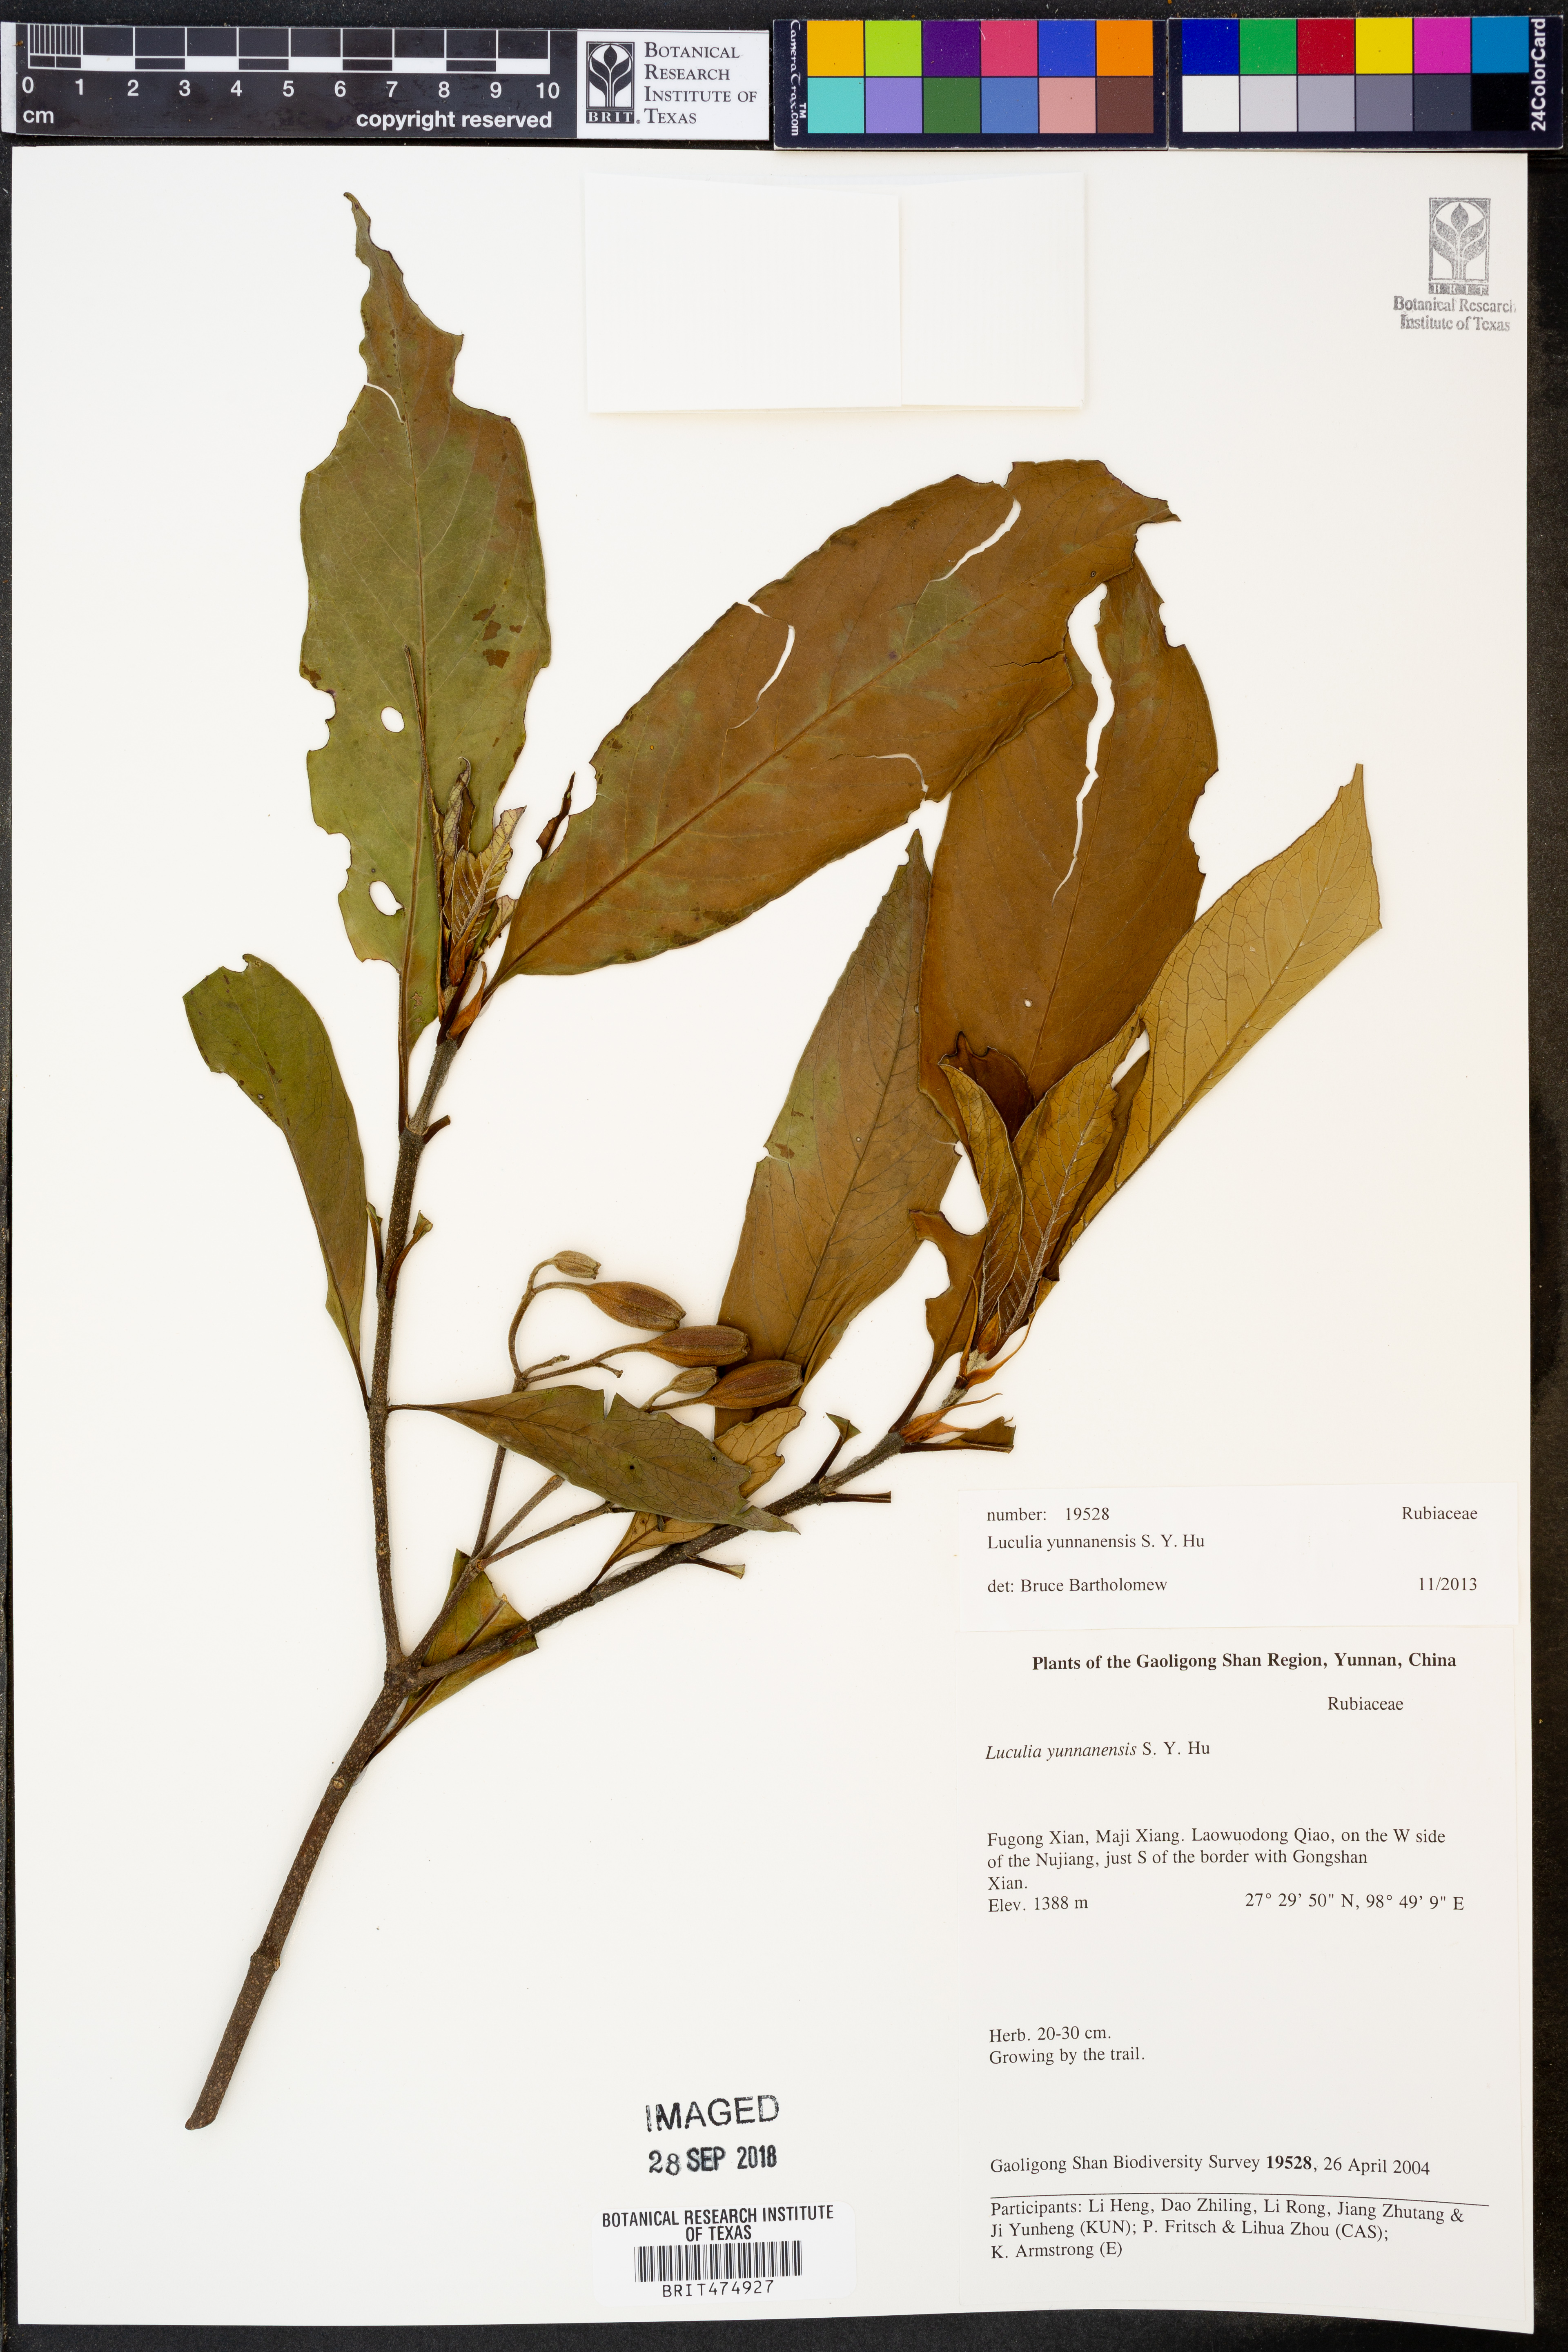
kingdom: Plantae
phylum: Tracheophyta
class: Magnoliopsida
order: Gentianales
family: Rubiaceae
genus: Luculia
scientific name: Luculia yunnanensis
